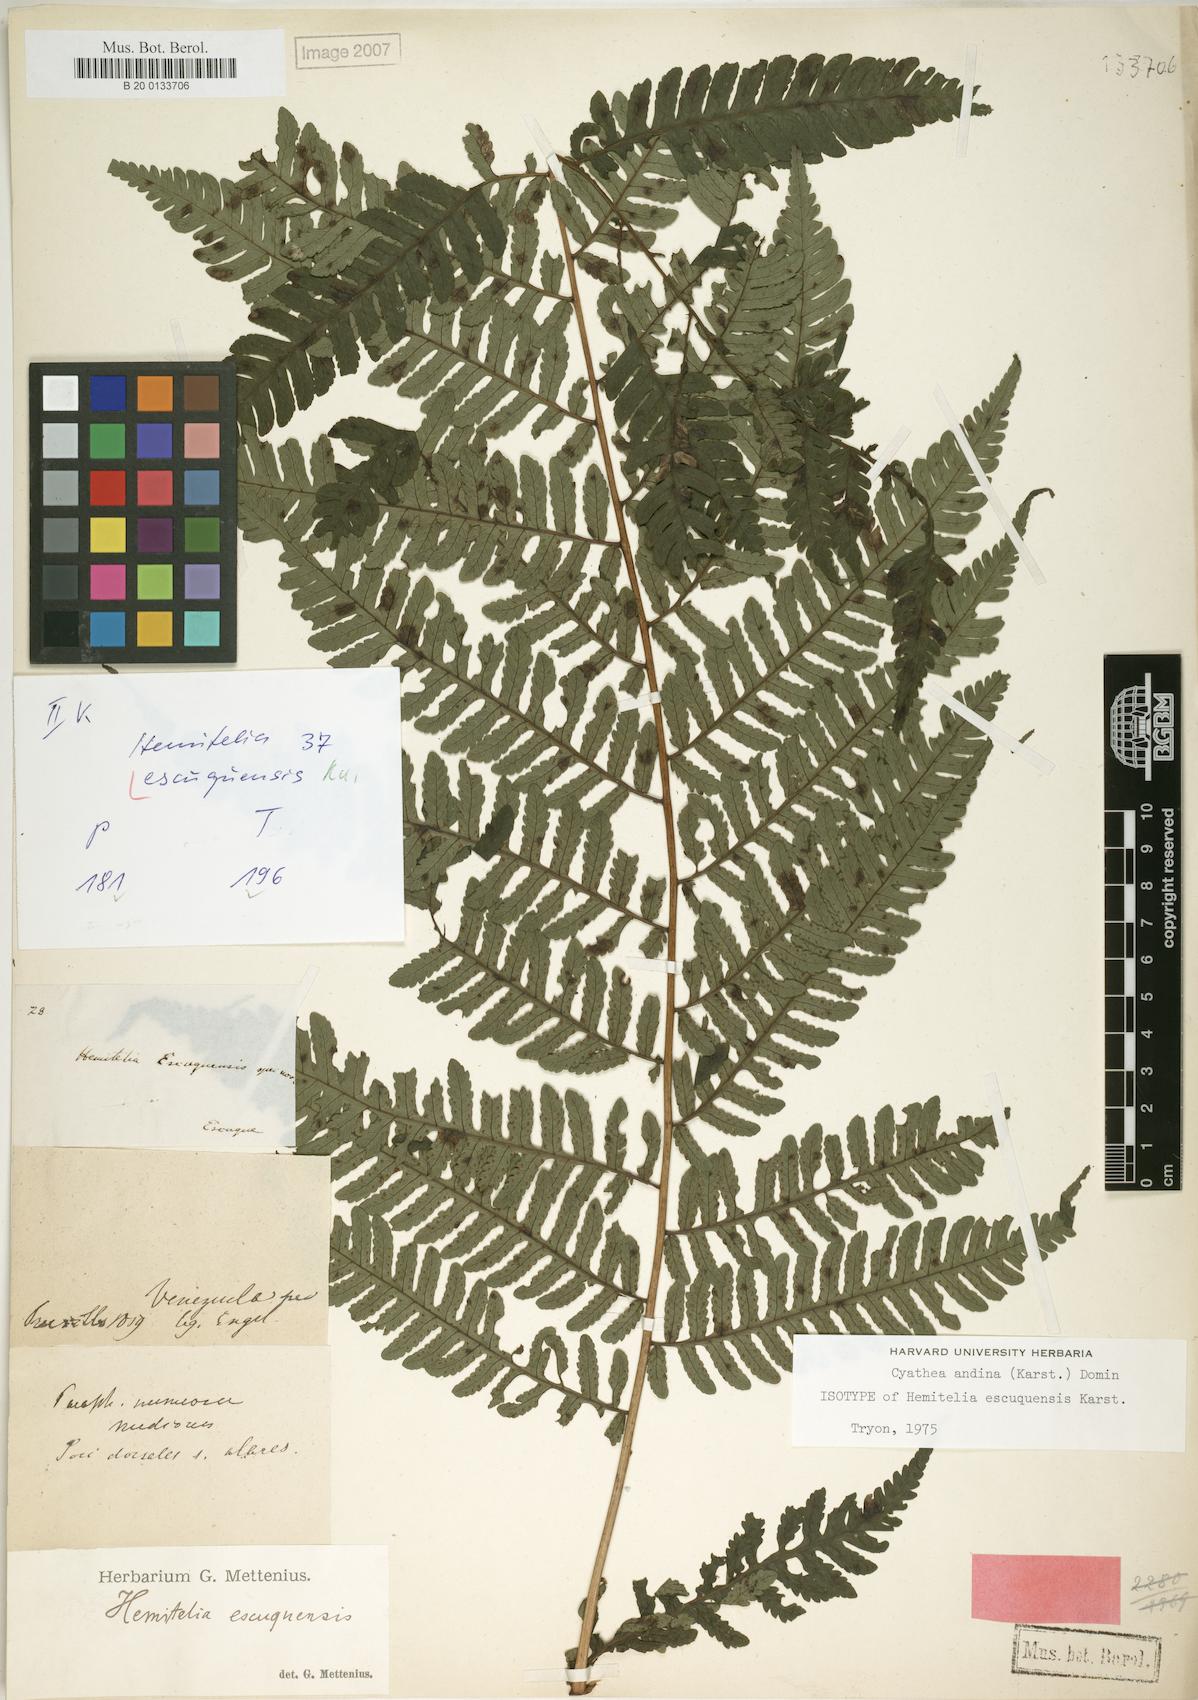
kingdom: Plantae
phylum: Tracheophyta
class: Polypodiopsida
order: Cyatheales
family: Cyatheaceae
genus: Cyathea
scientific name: Cyathea andina
